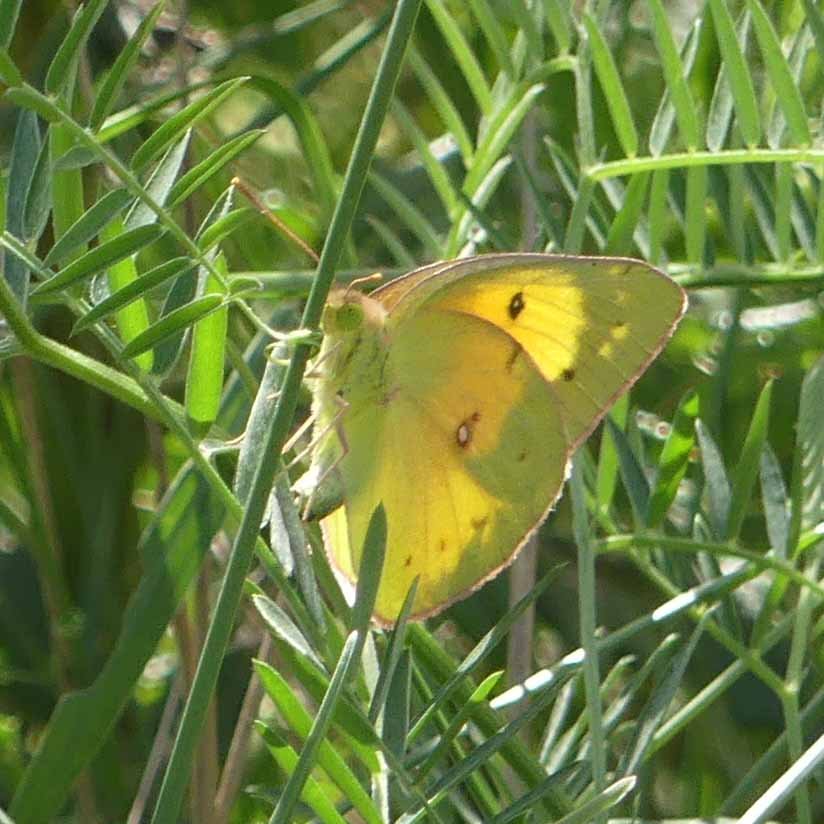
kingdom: Animalia
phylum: Arthropoda
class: Insecta
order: Lepidoptera
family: Pieridae
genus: Colias
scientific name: Colias eurytheme
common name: Orange Sulphur
